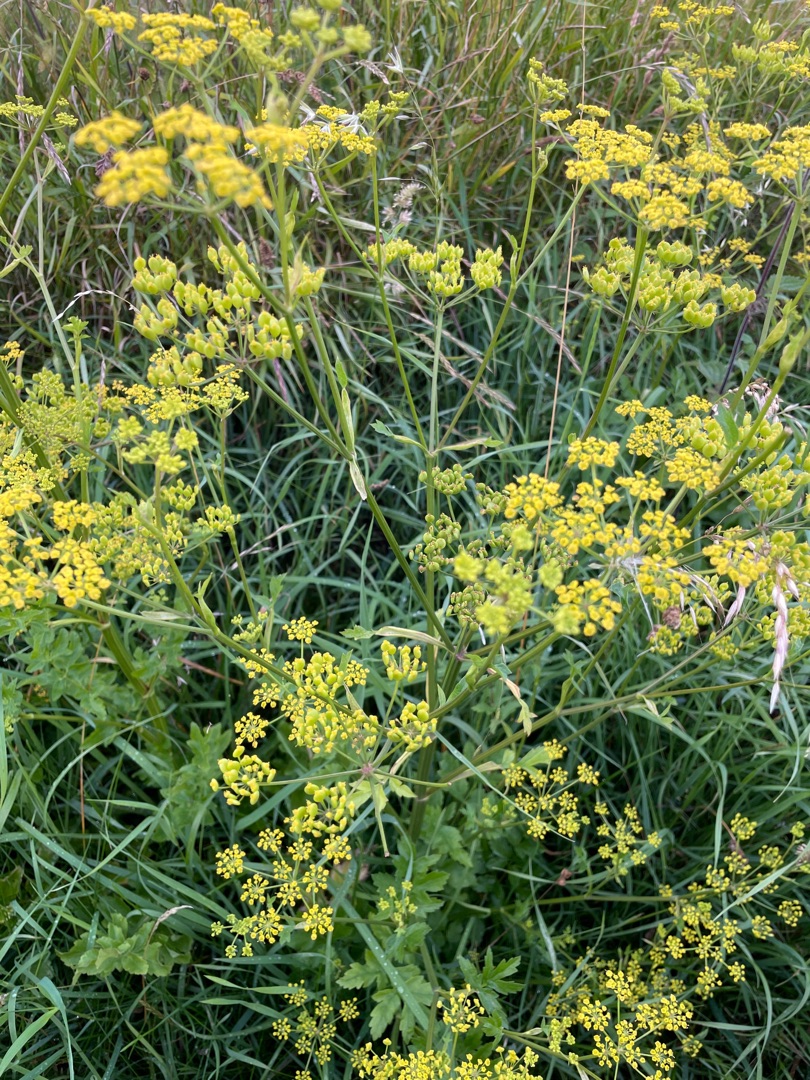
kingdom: Plantae
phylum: Tracheophyta
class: Magnoliopsida
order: Apiales
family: Apiaceae
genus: Pastinaca
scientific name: Pastinaca sativa
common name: Pastinak
